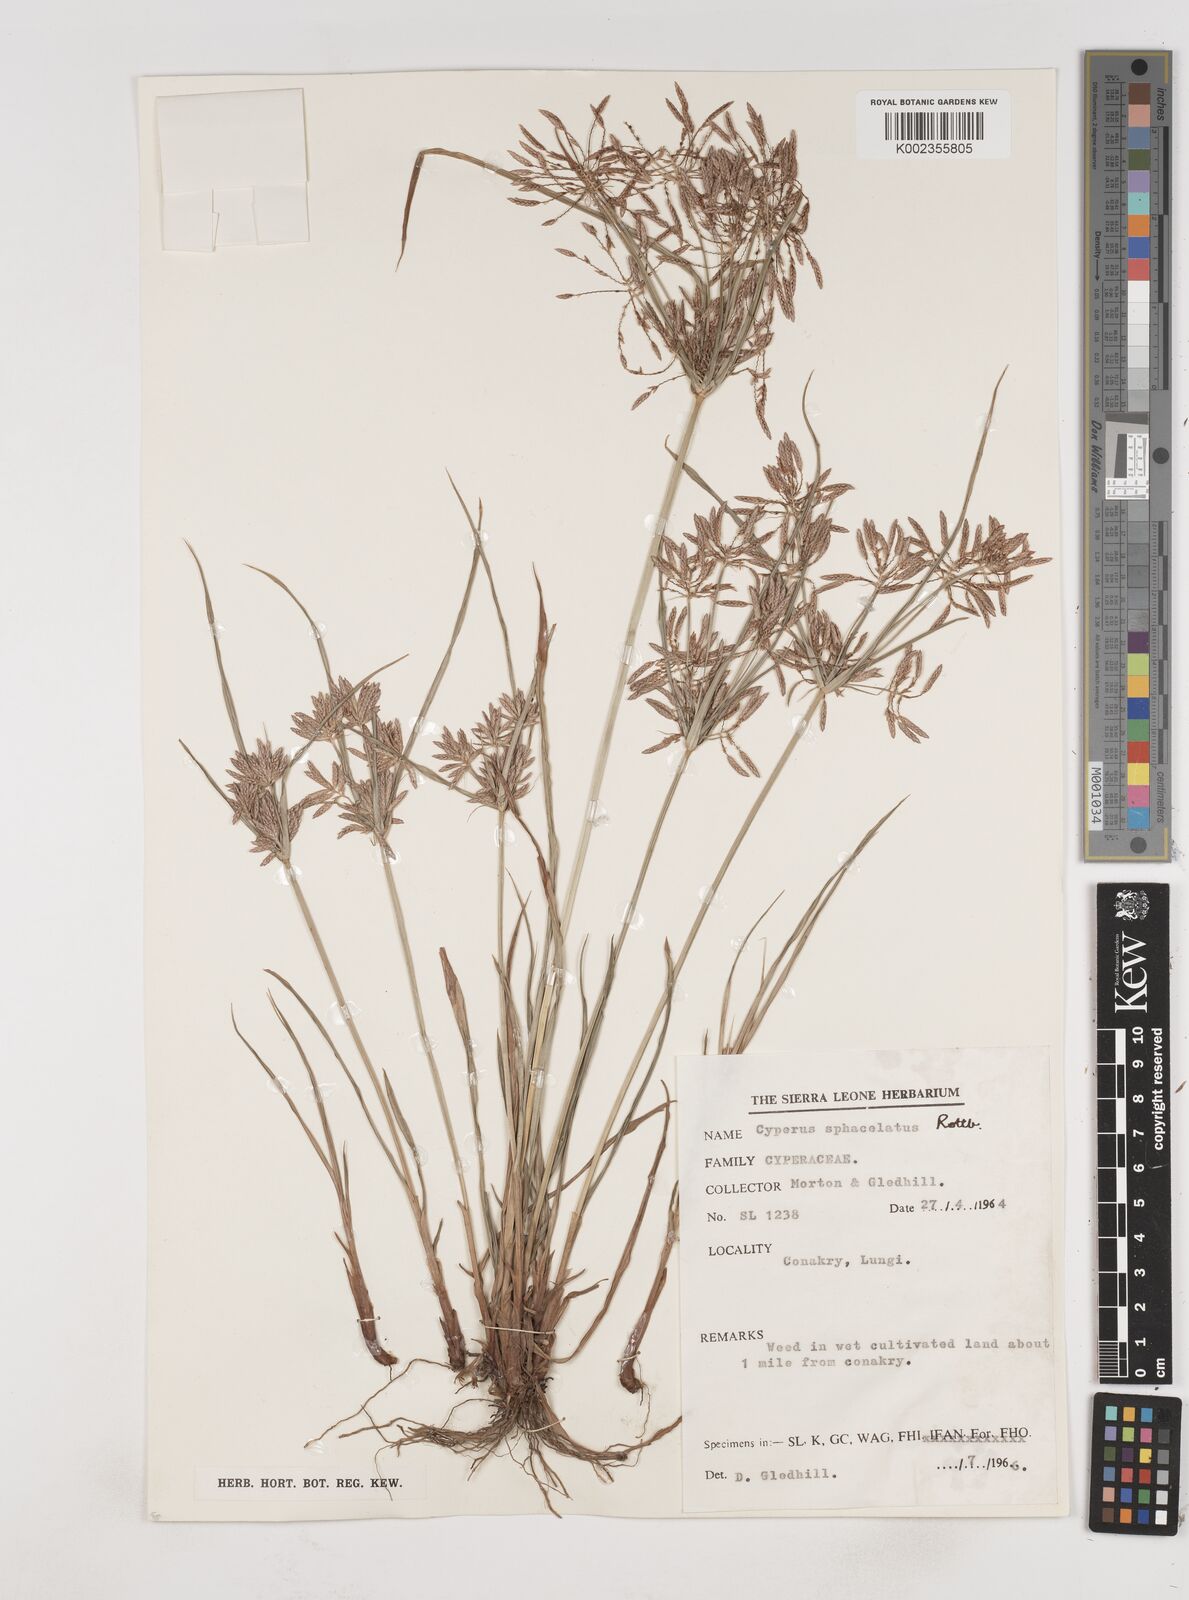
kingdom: Plantae
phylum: Tracheophyta
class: Liliopsida
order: Poales
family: Cyperaceae
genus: Cyperus
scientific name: Cyperus sphacelatus
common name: Roadside flatsedge
